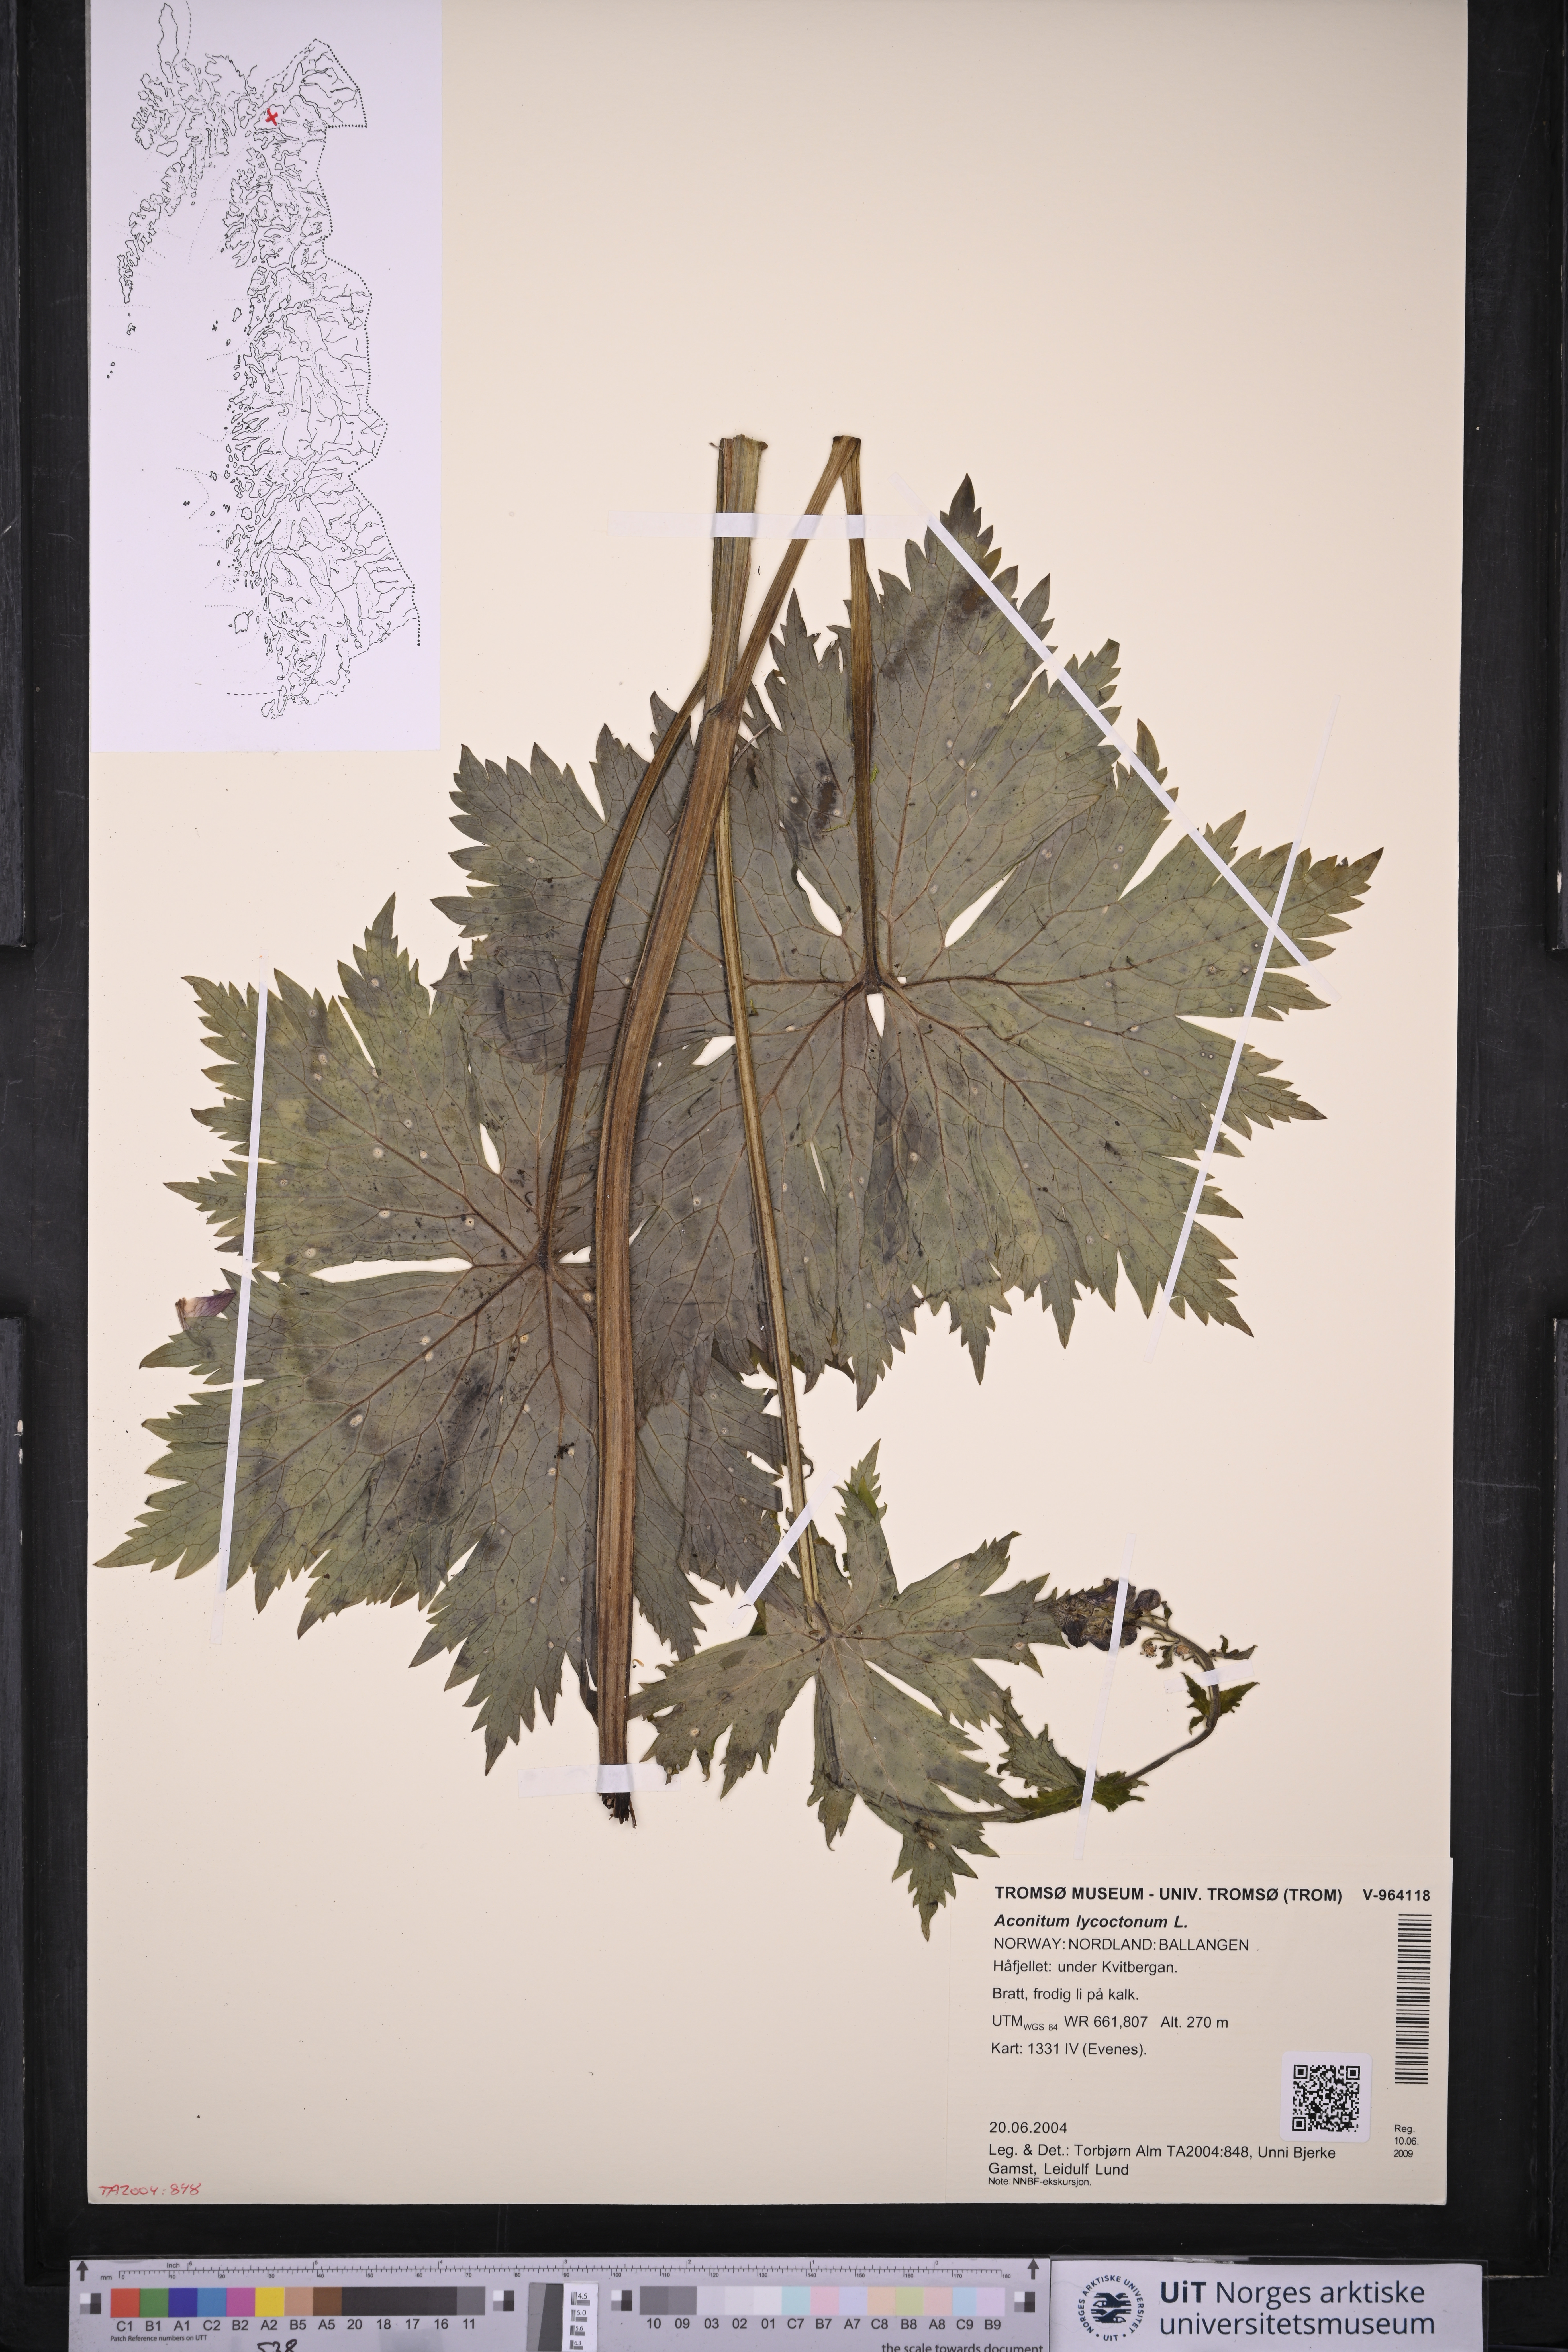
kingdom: Plantae
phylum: Tracheophyta
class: Magnoliopsida
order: Ranunculales
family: Ranunculaceae
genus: Aconitum
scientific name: Aconitum lycoctonum
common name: Wolf's-bane
